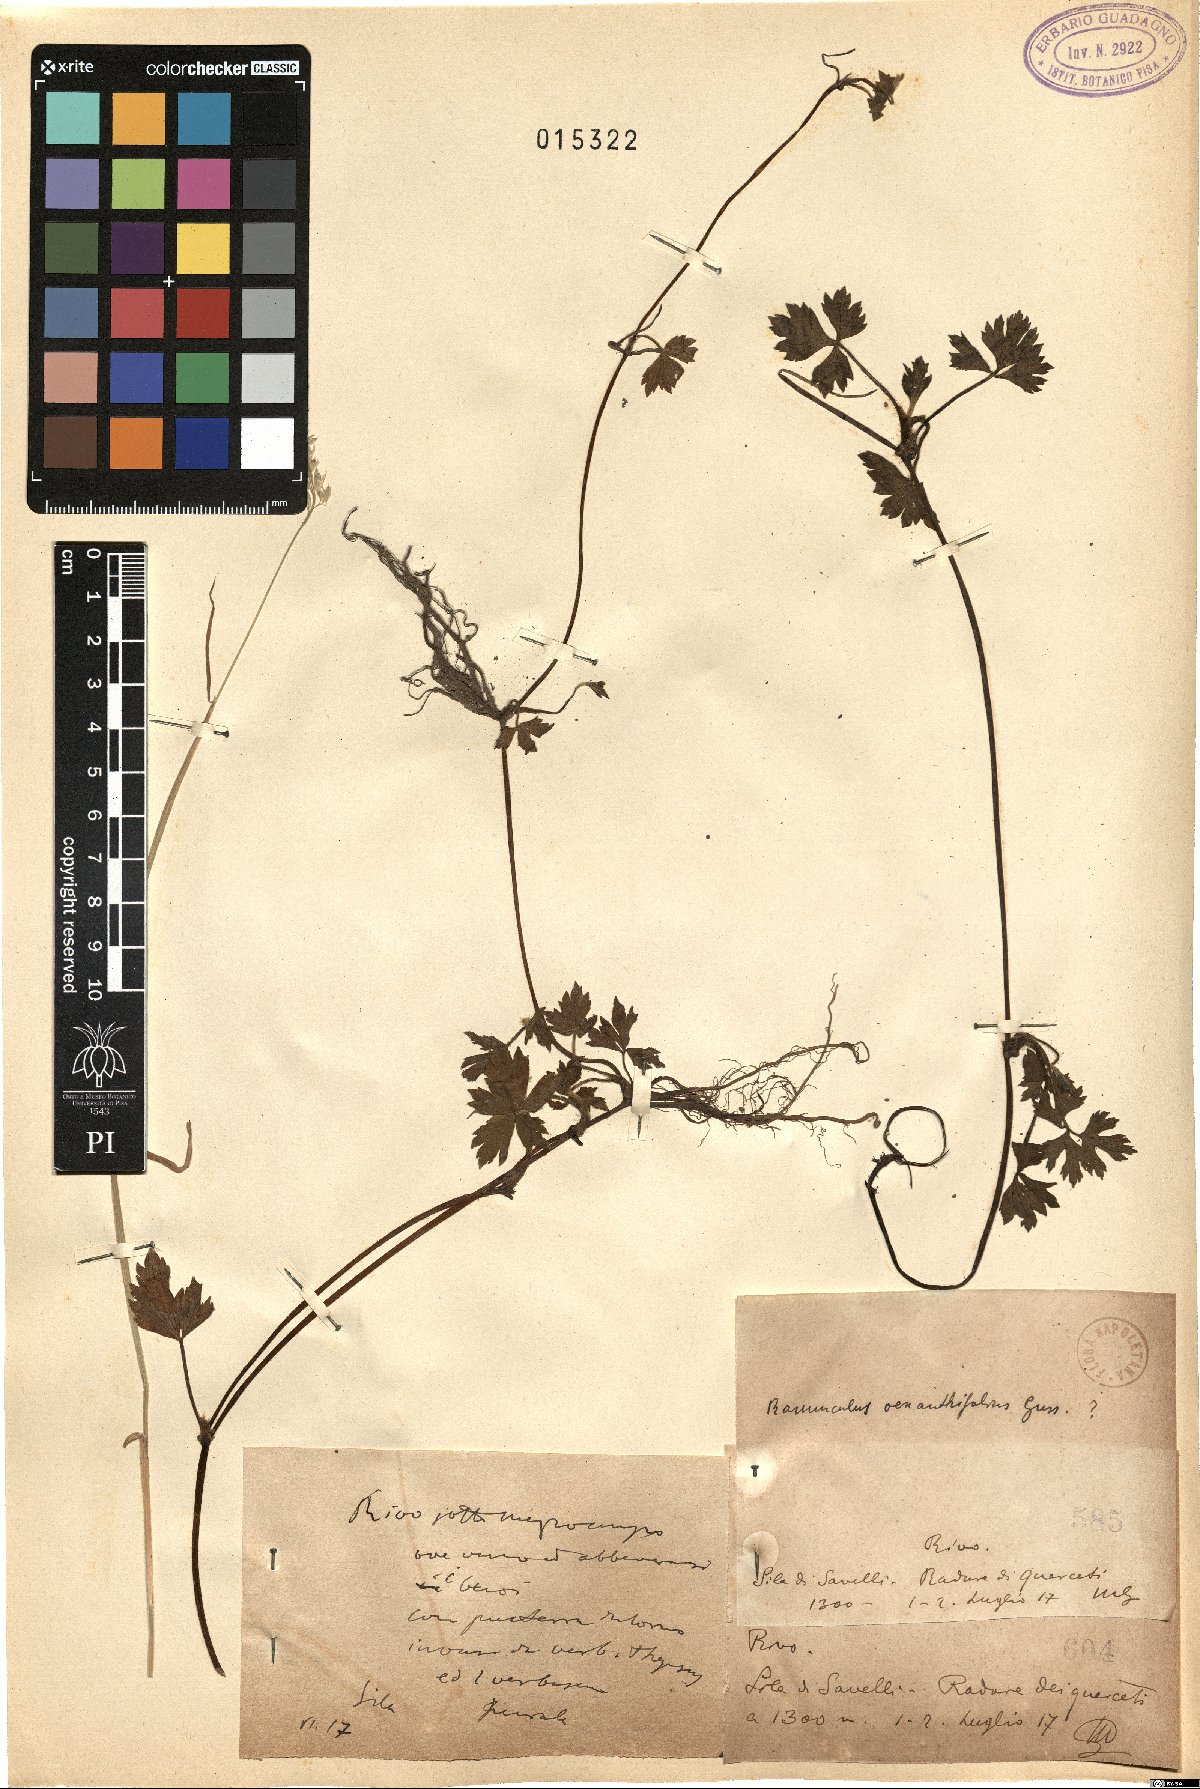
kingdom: Plantae
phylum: Tracheophyta
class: Magnoliopsida
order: Ranunculales
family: Ranunculaceae
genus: Ranunculus
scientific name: Ranunculus repens
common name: Creeping buttercup
